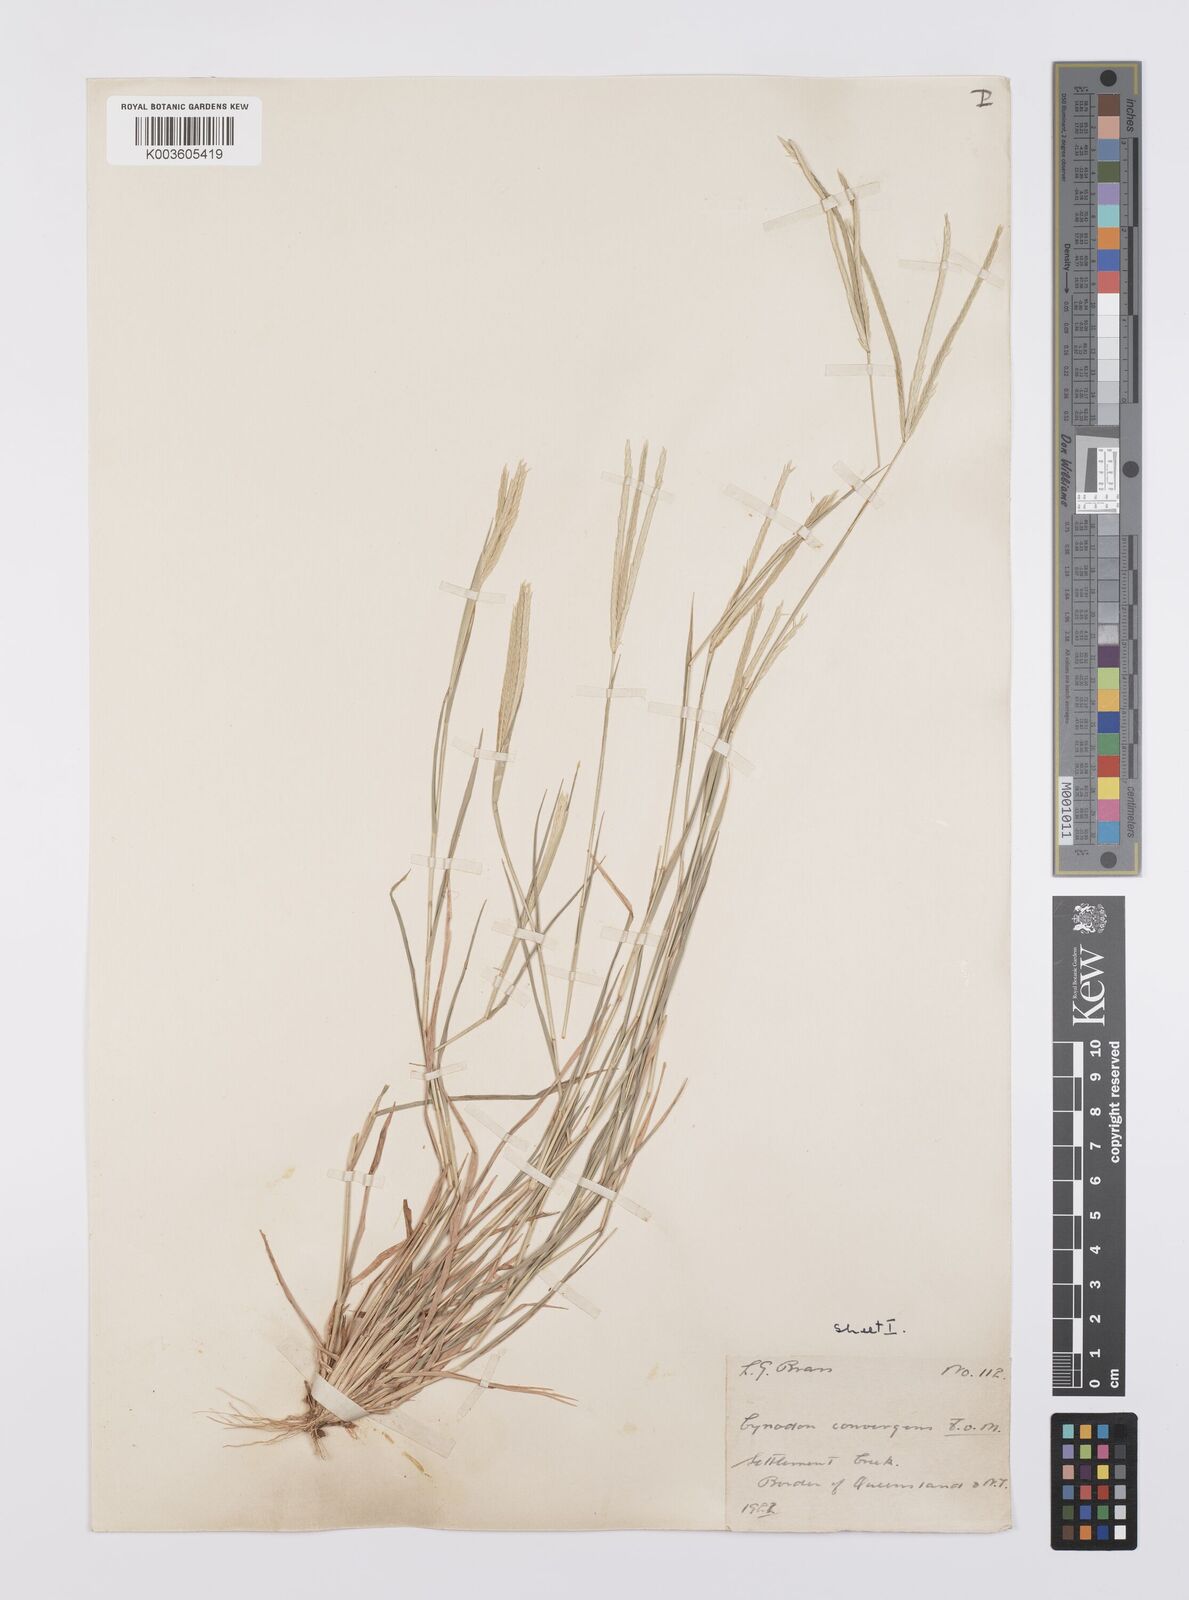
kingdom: Plantae
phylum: Tracheophyta
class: Liliopsida
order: Poales
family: Poaceae
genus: Cynodon
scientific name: Cynodon convergens
